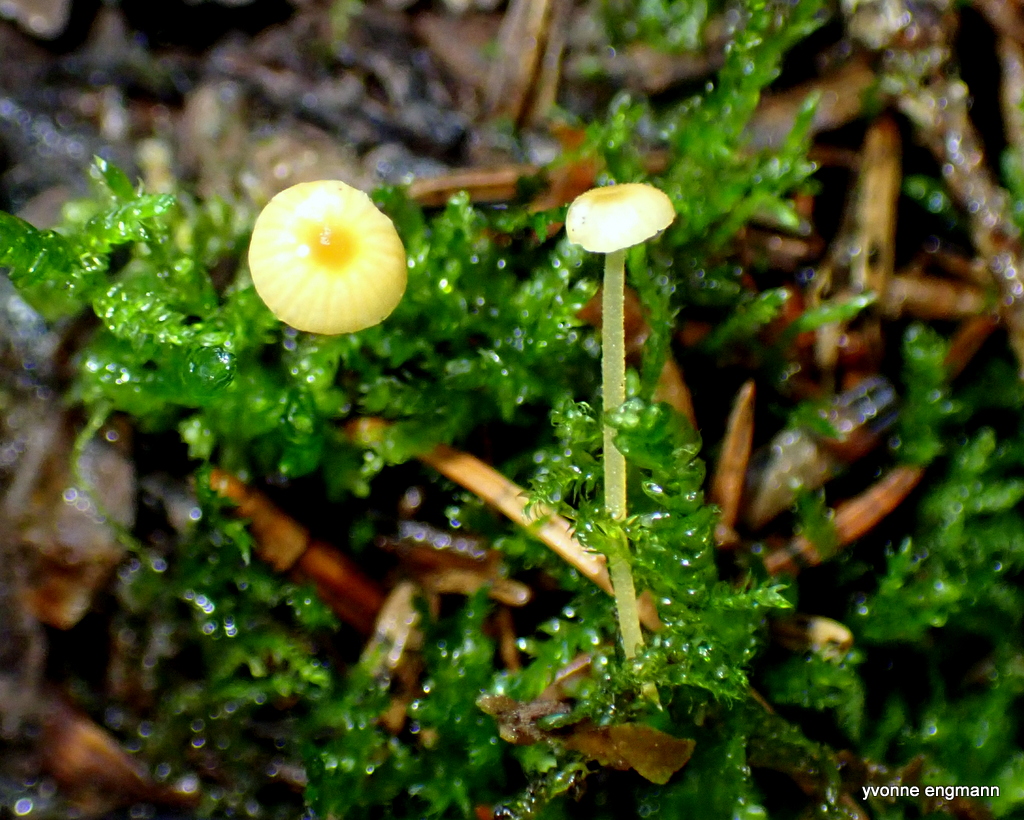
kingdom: Fungi
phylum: Basidiomycota
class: Agaricomycetes
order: Hymenochaetales
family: Rickenellaceae
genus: Rickenella
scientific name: Rickenella fibula
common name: orange mosnavlehat
